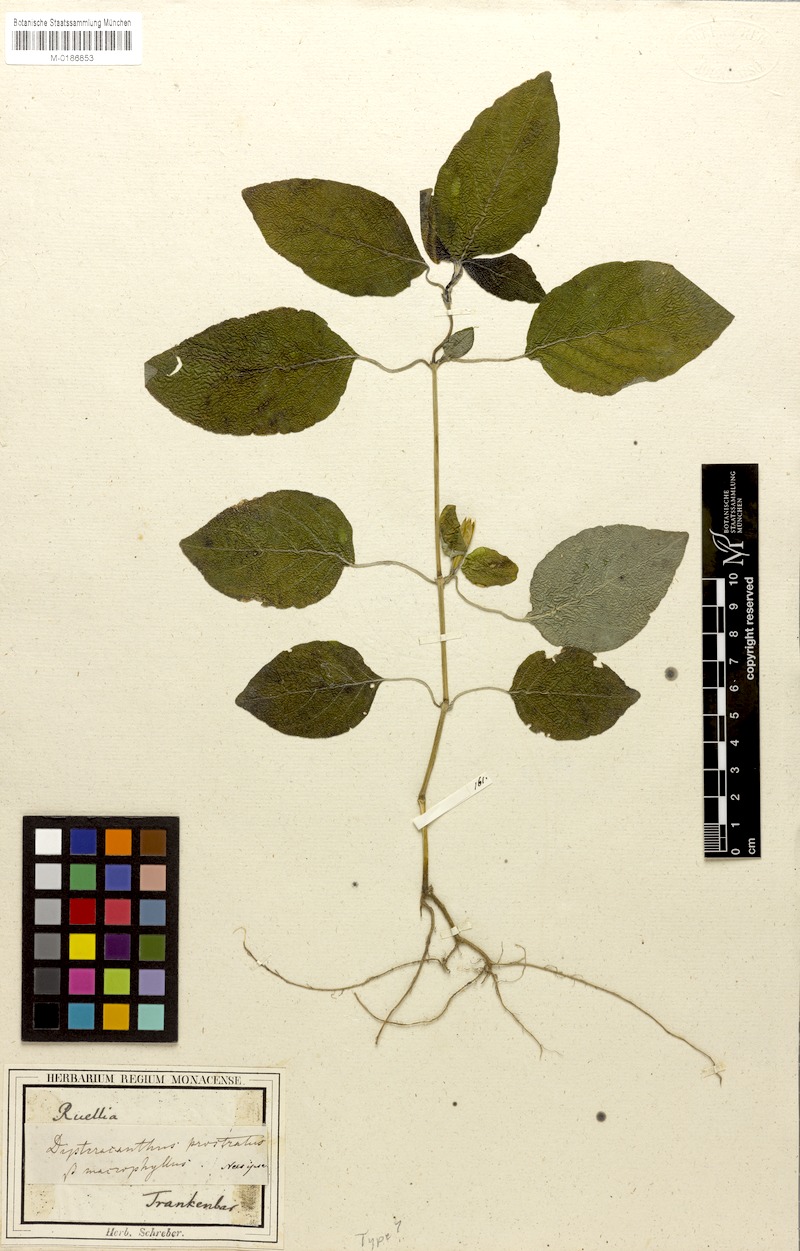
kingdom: Plantae
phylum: Tracheophyta
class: Magnoliopsida
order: Lamiales
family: Acanthaceae
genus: Ruellia
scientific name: Ruellia prostrata
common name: Prostrate wild petunia
